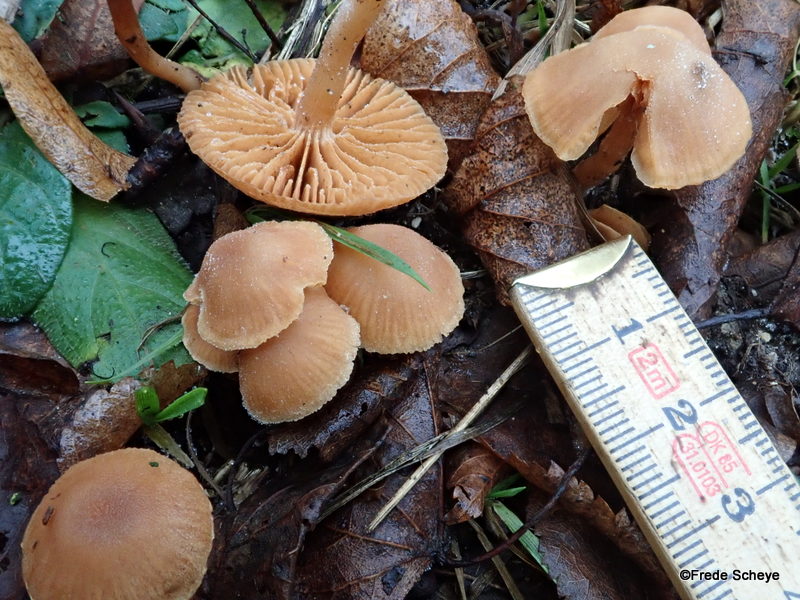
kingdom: Fungi
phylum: Basidiomycota
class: Agaricomycetes
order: Agaricales
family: Tubariaceae
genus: Tubaria
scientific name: Tubaria furfuracea
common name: kliddet fnughat
